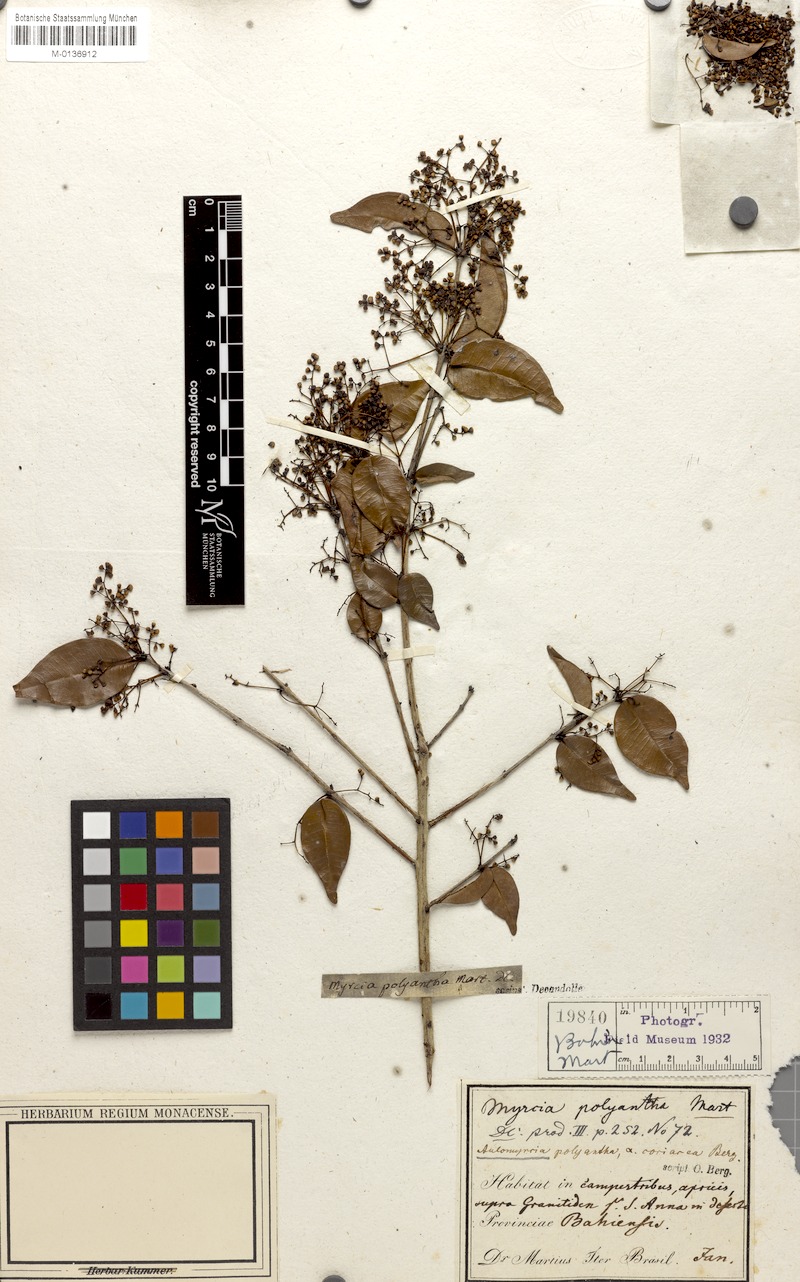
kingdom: Plantae
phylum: Tracheophyta
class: Magnoliopsida
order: Myrtales
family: Myrtaceae
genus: Myrcia
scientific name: Myrcia neopolyantha
